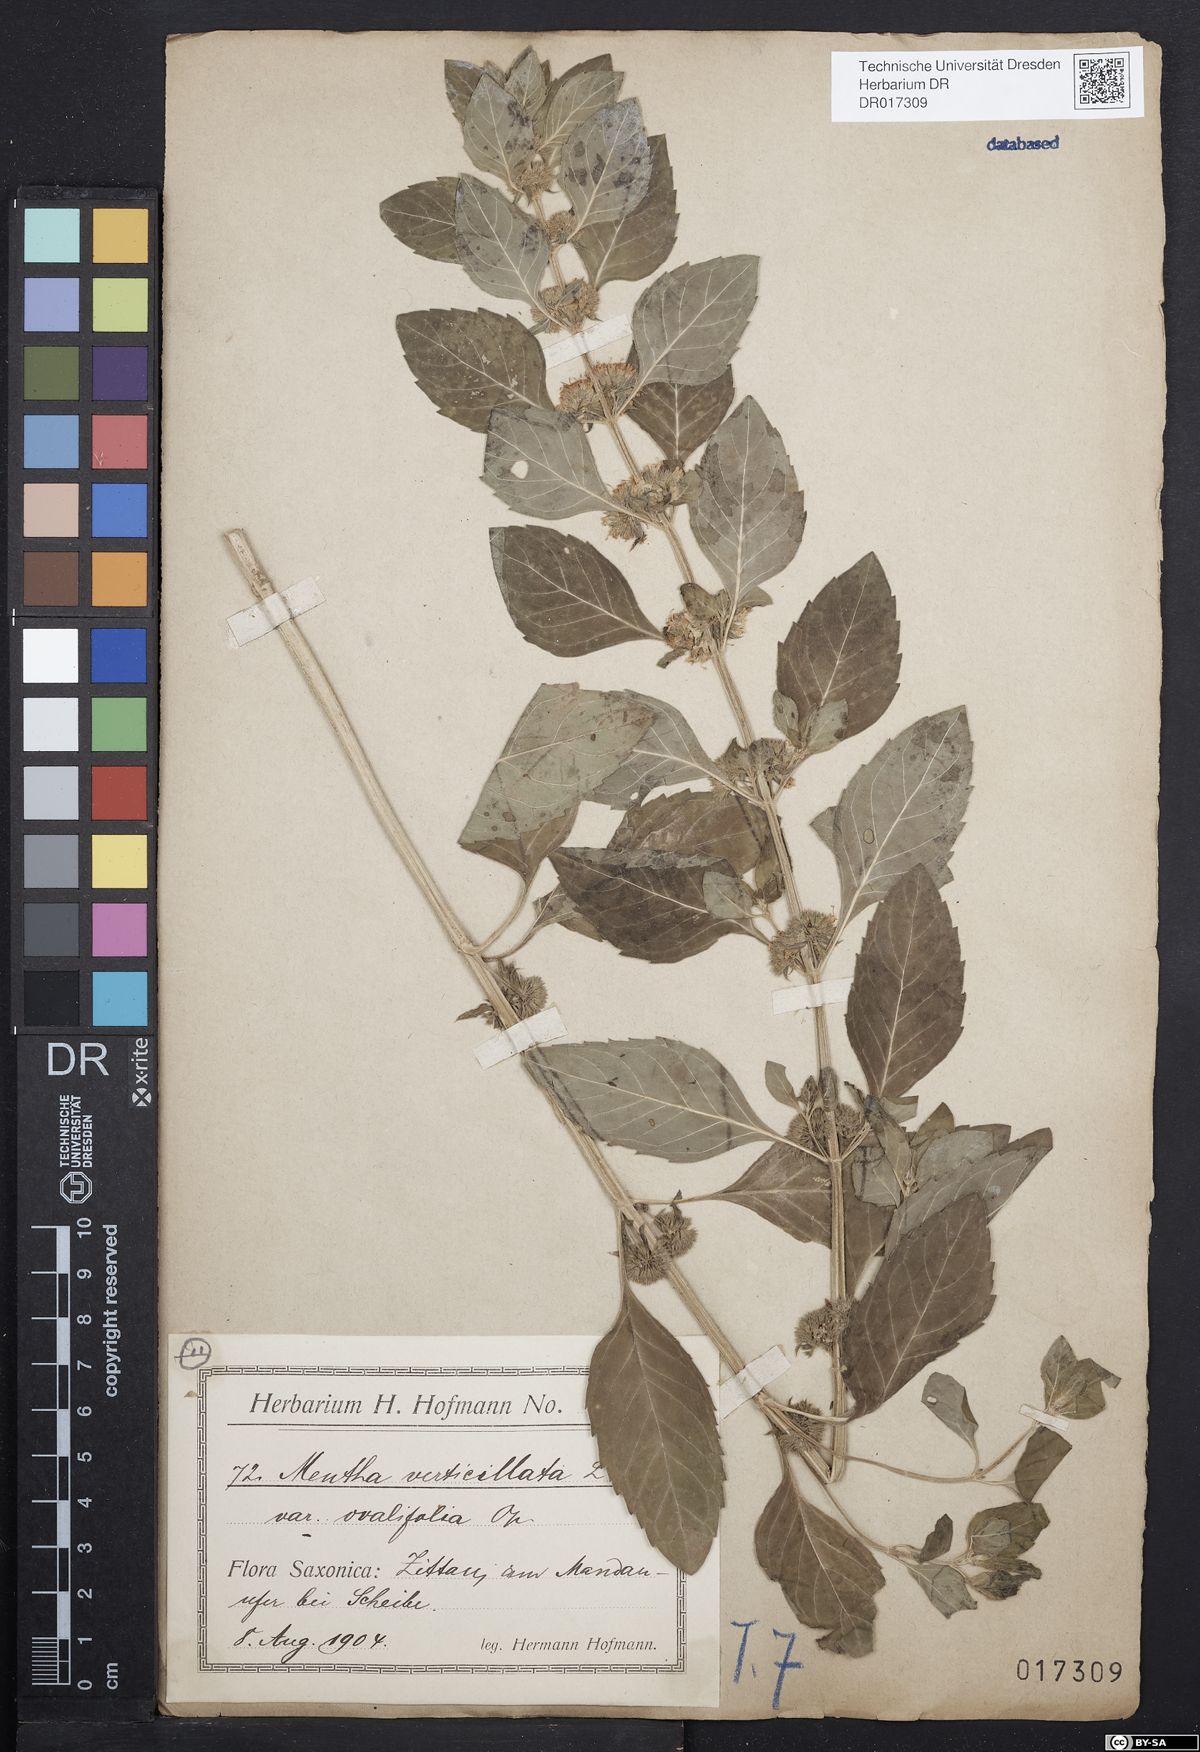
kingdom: Plantae
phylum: Tracheophyta
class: Magnoliopsida
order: Lamiales
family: Lamiaceae
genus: Mentha
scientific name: Mentha verticillata
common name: Mint
